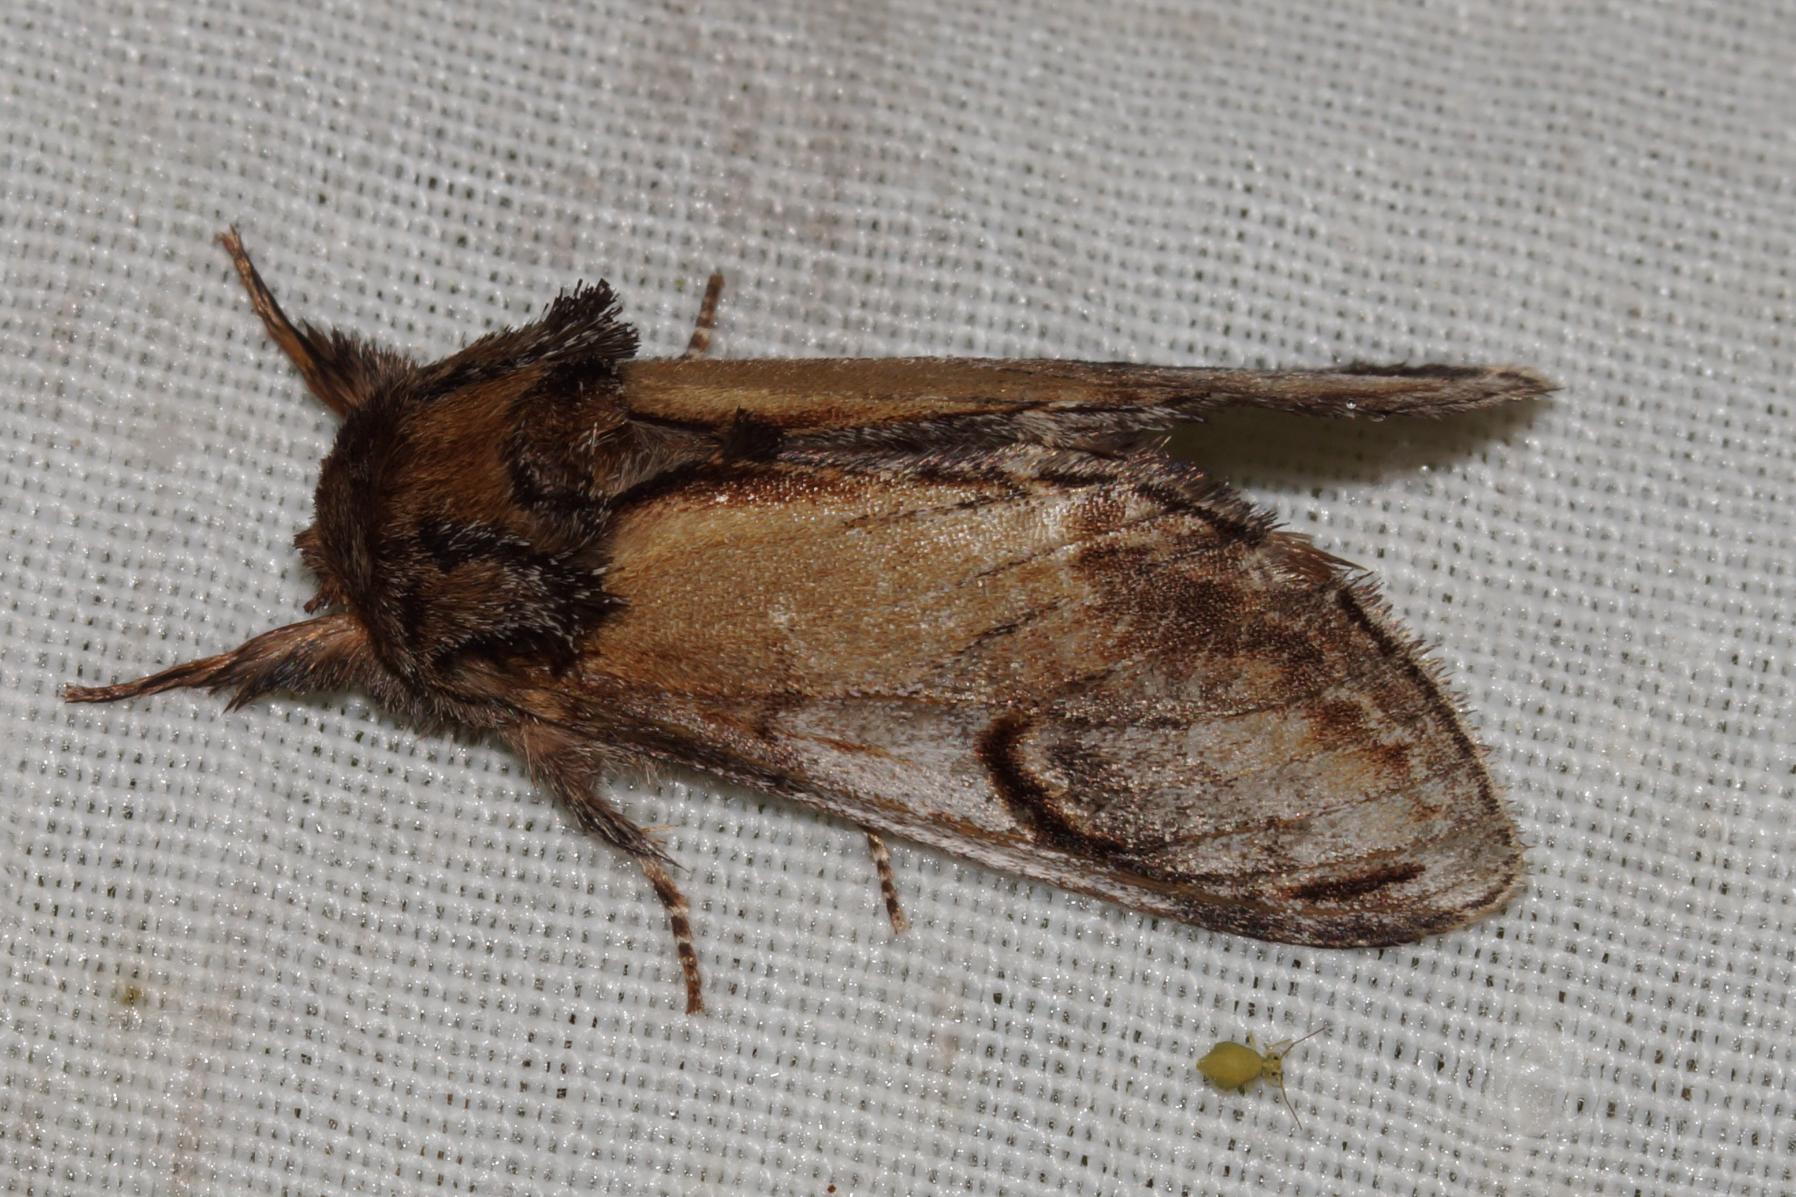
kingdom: Animalia
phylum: Arthropoda
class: Insecta
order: Lepidoptera
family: Notodontidae
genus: Notodonta
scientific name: Notodonta ziczac
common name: Zigzagspinder
